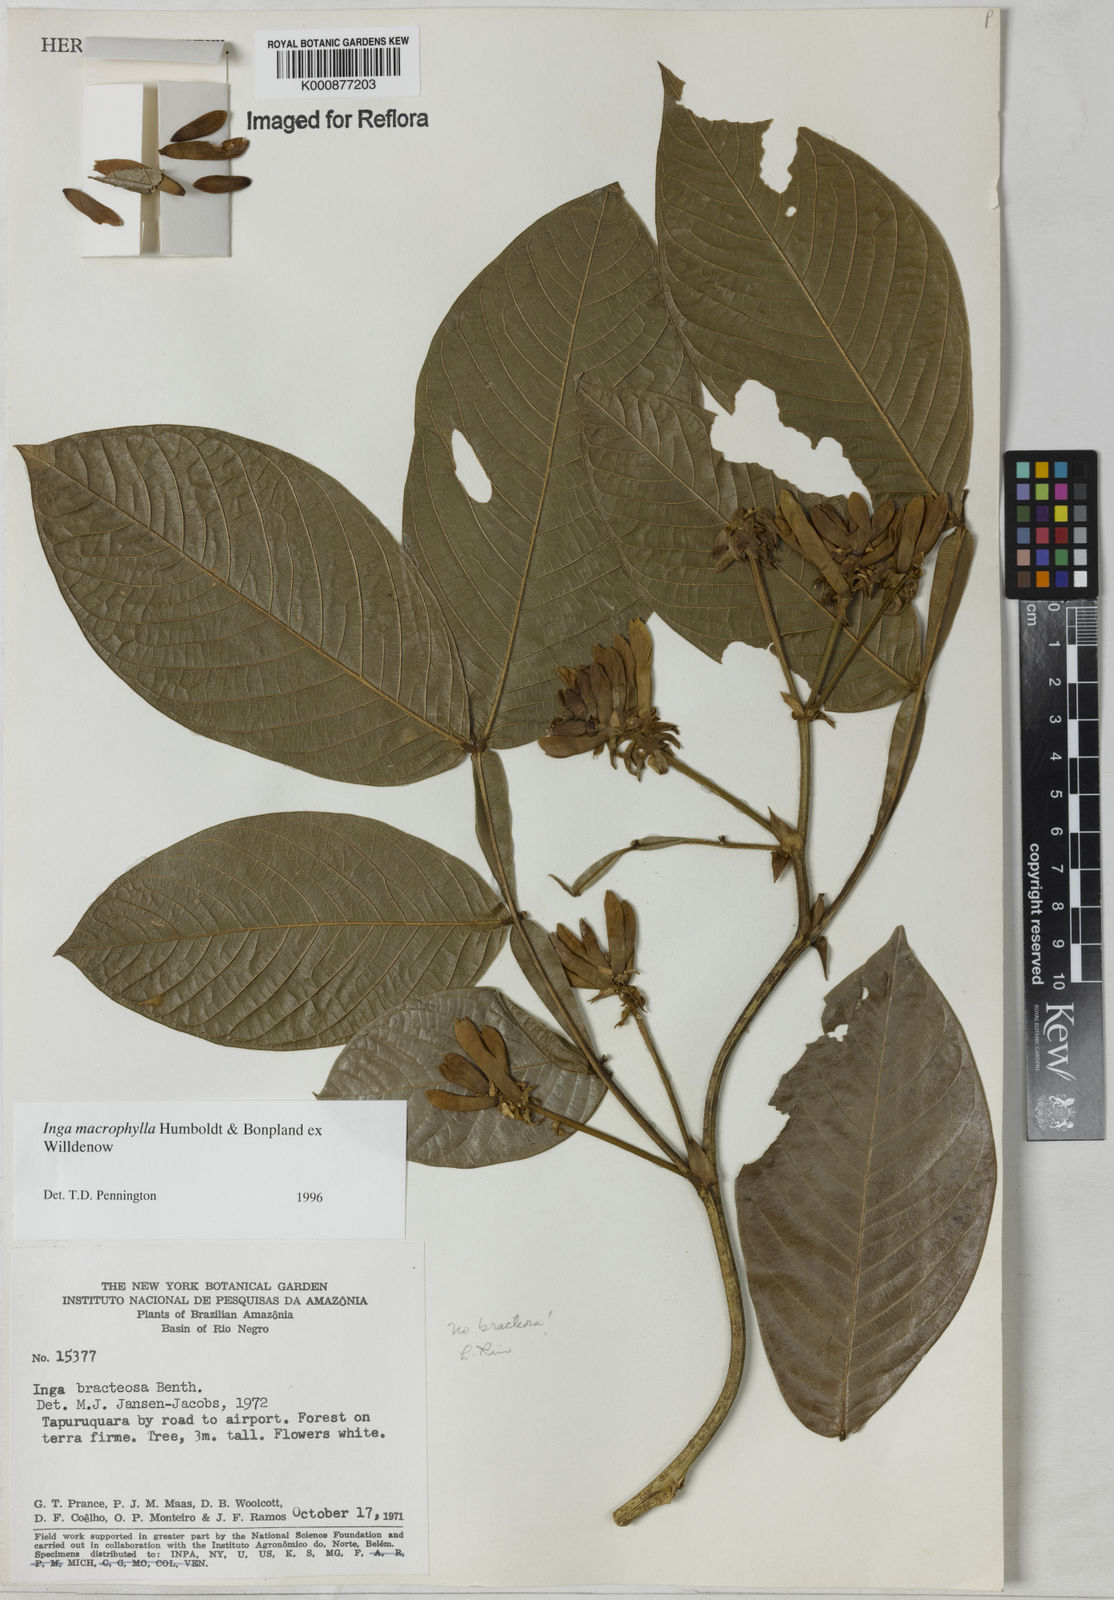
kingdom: Plantae
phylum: Tracheophyta
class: Magnoliopsida
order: Fabales
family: Fabaceae
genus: Inga
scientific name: Inga macrophylla
